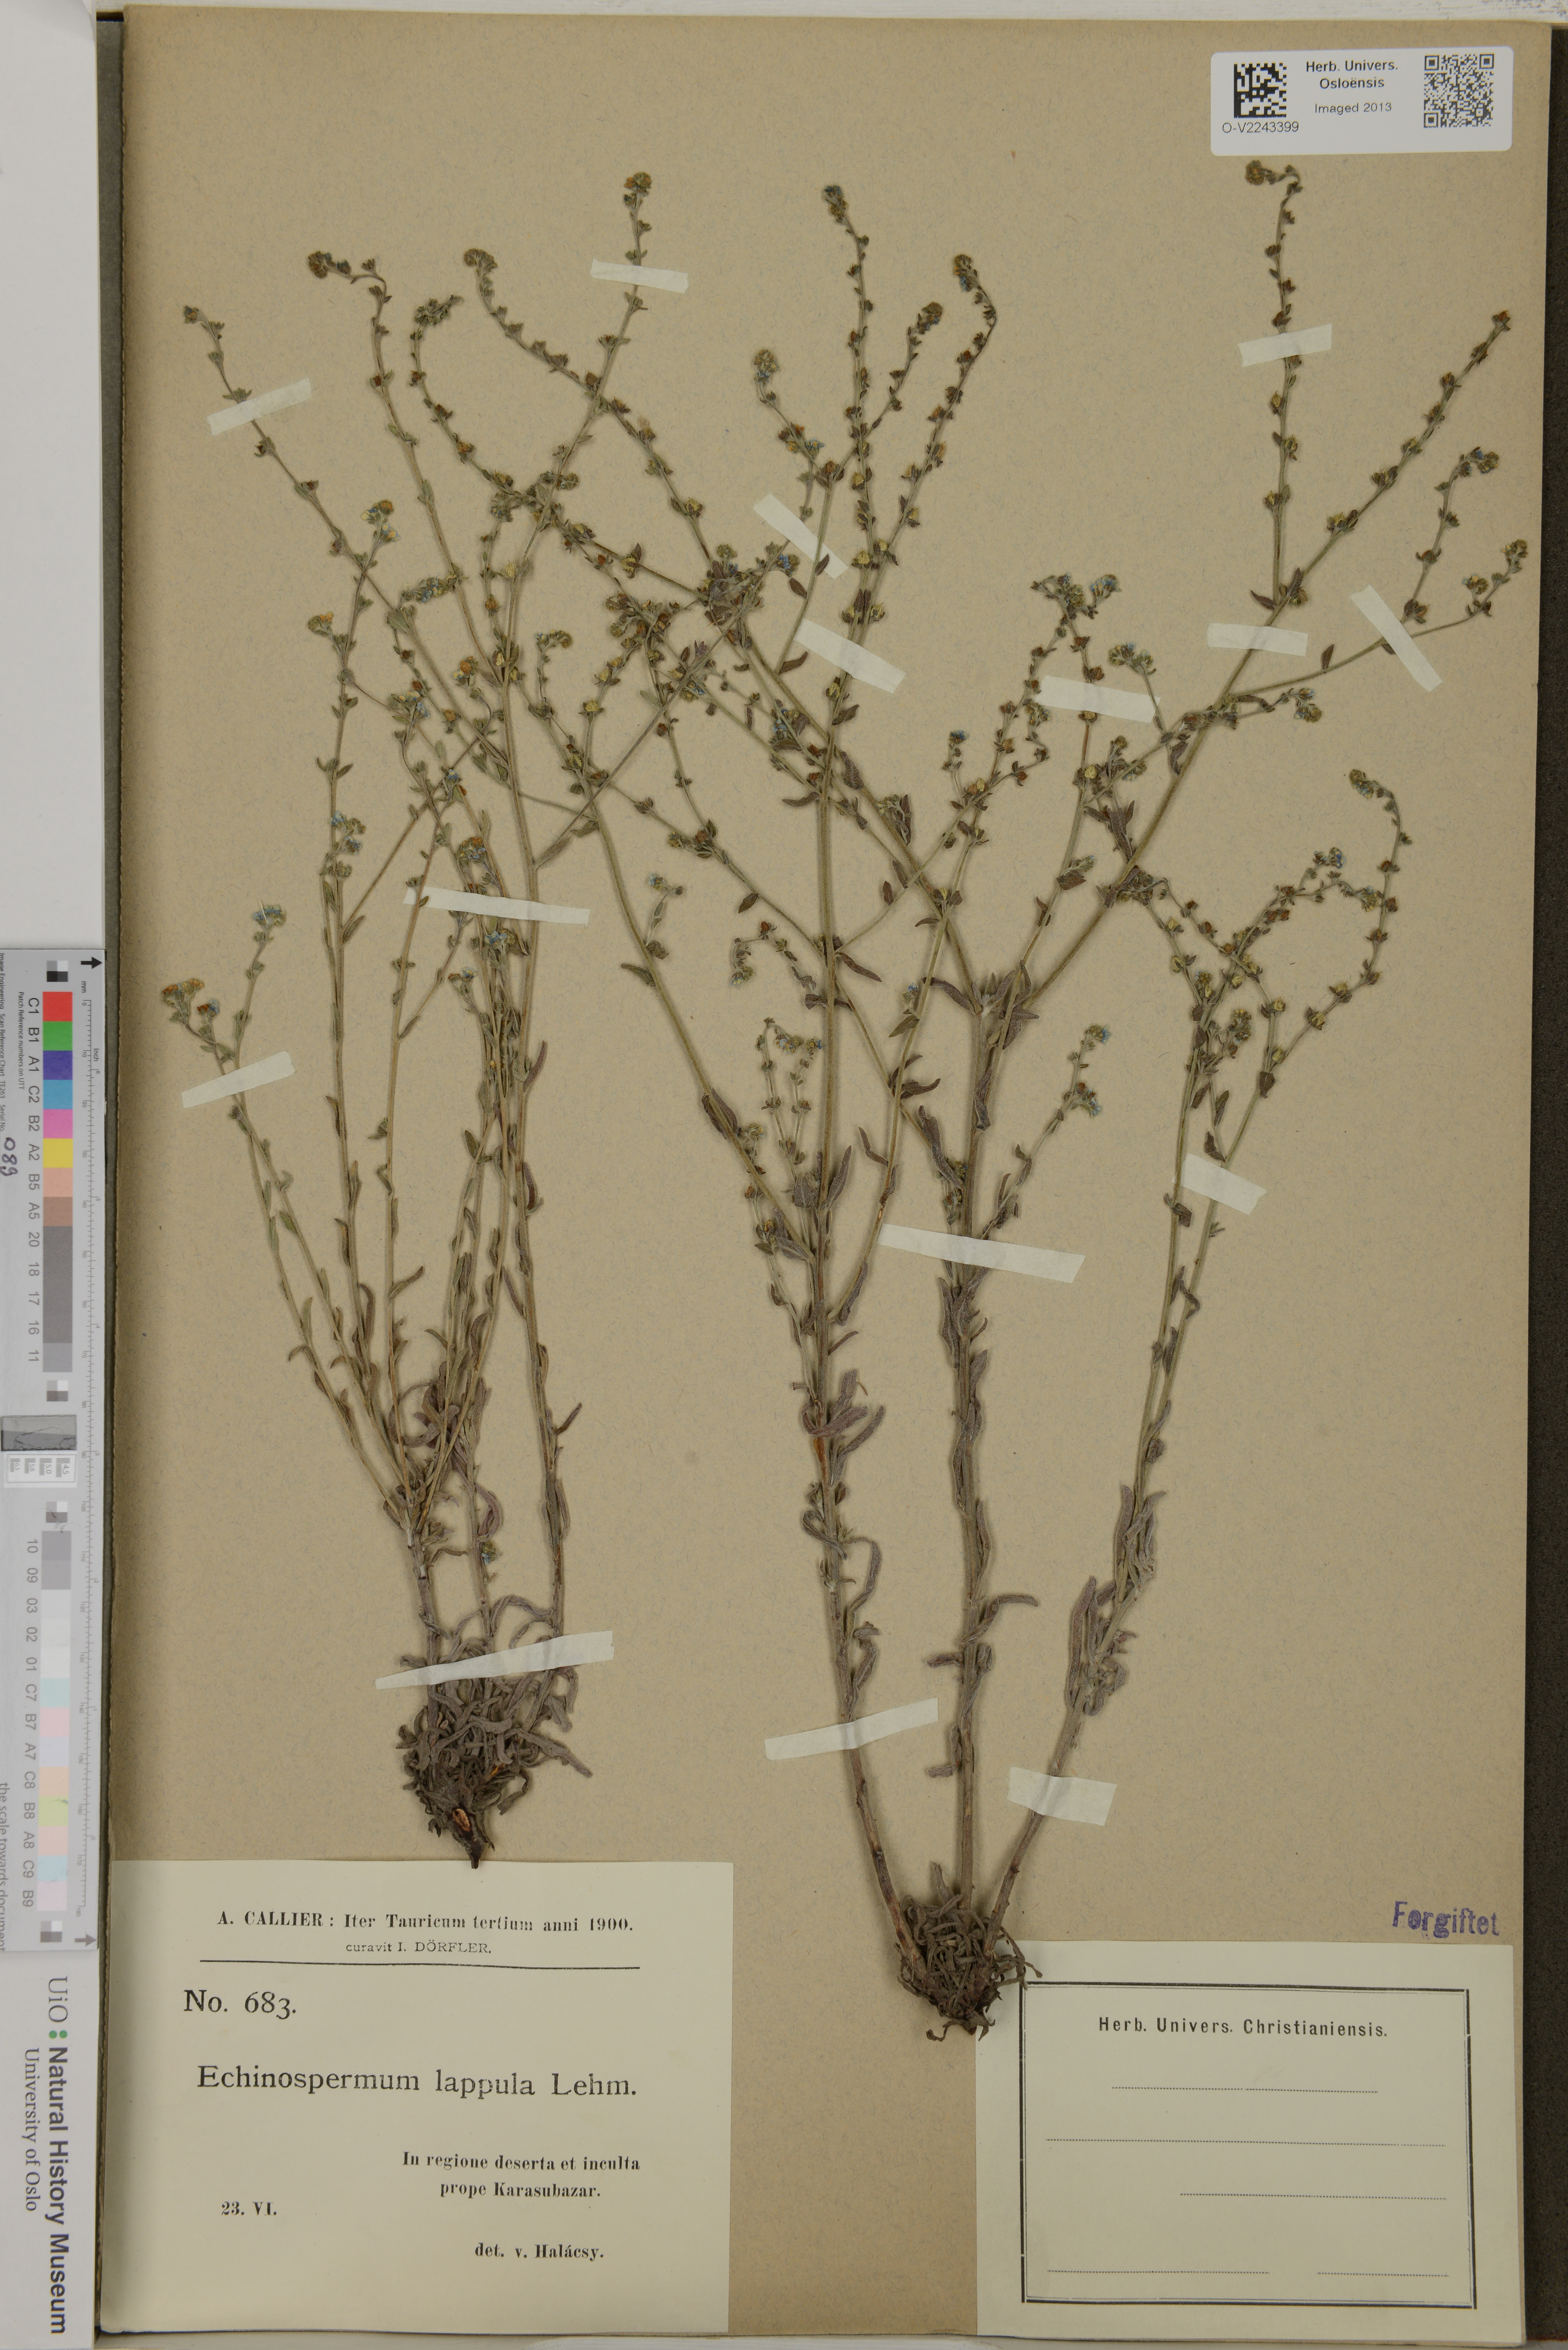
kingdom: Plantae
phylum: Tracheophyta
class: Magnoliopsida
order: Boraginales
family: Boraginaceae
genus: Lappula
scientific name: Lappula squarrosa
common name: European stickseed
